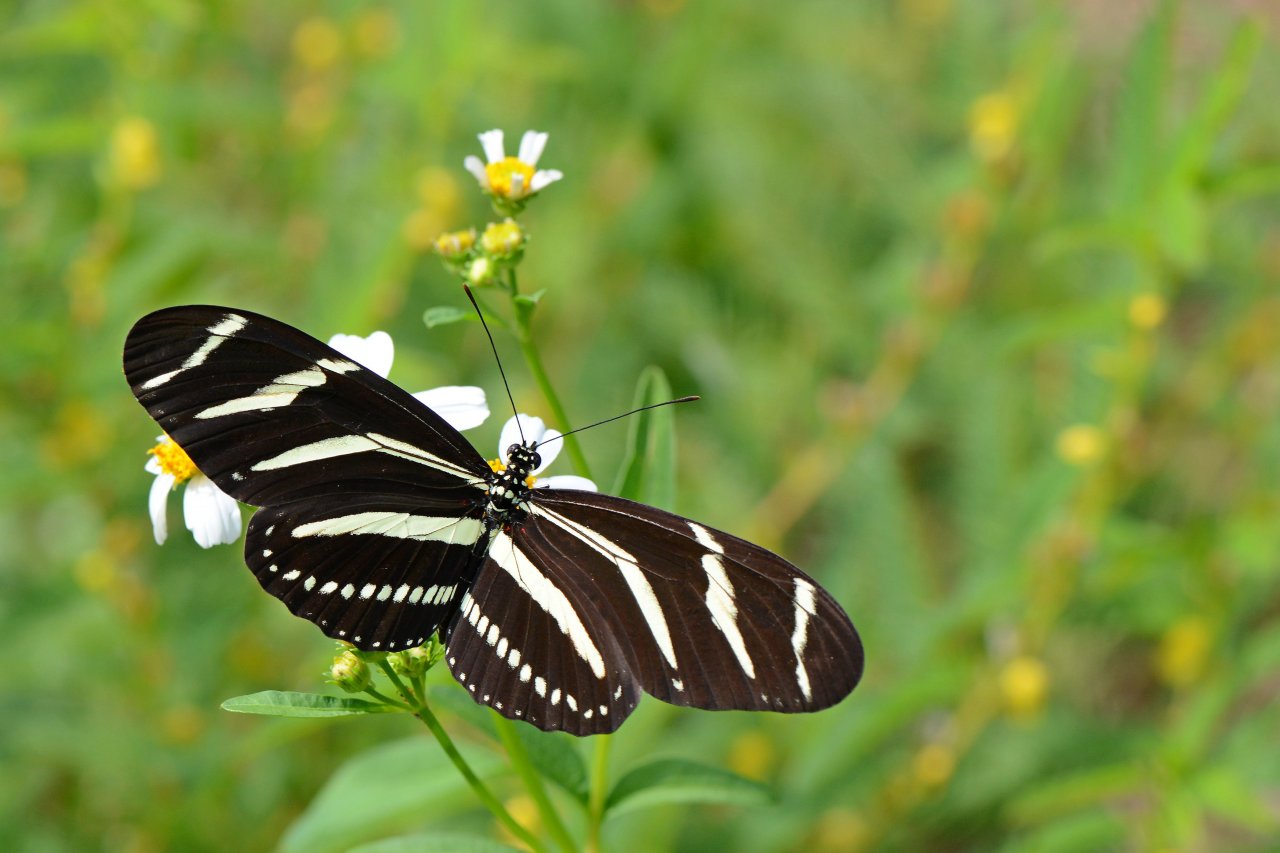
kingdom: Animalia
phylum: Arthropoda
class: Insecta
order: Lepidoptera
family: Nymphalidae
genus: Heliconius
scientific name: Heliconius charithonia
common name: Zebra Longwing
